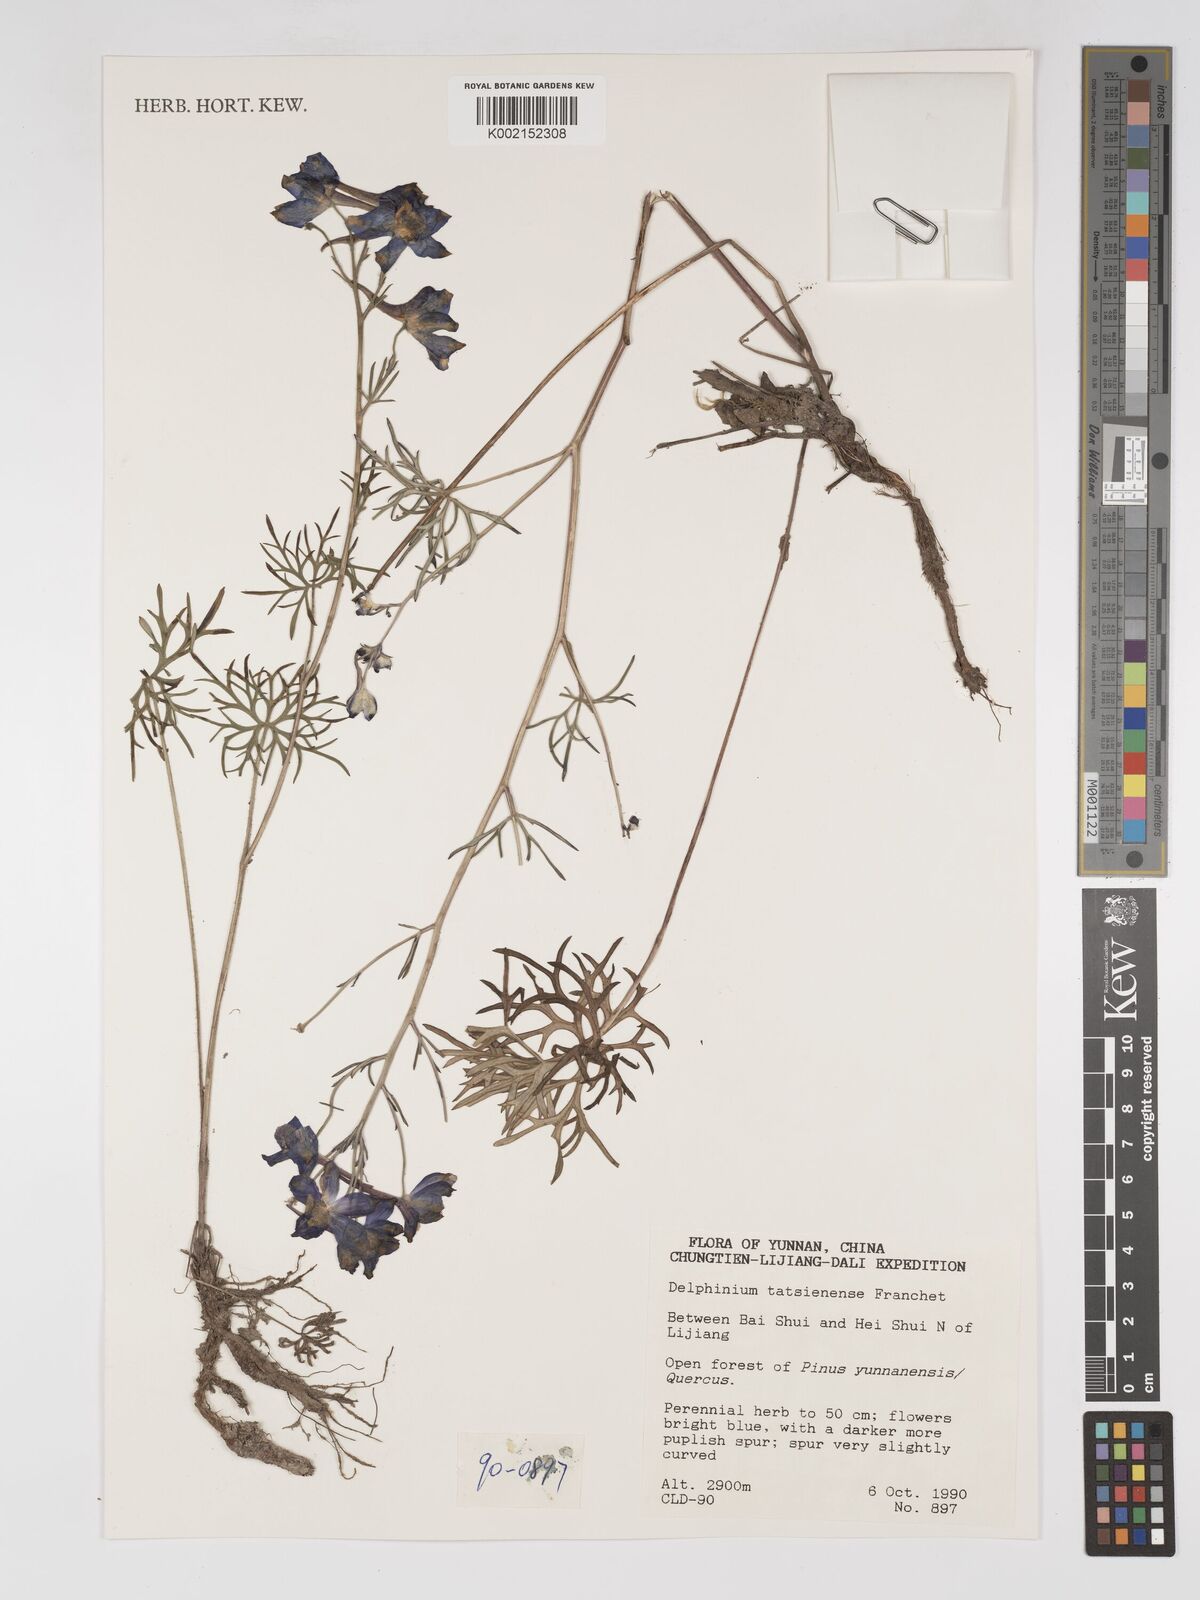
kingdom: Plantae
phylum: Tracheophyta
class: Magnoliopsida
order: Ranunculales
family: Ranunculaceae
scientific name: Ranunculaceae
